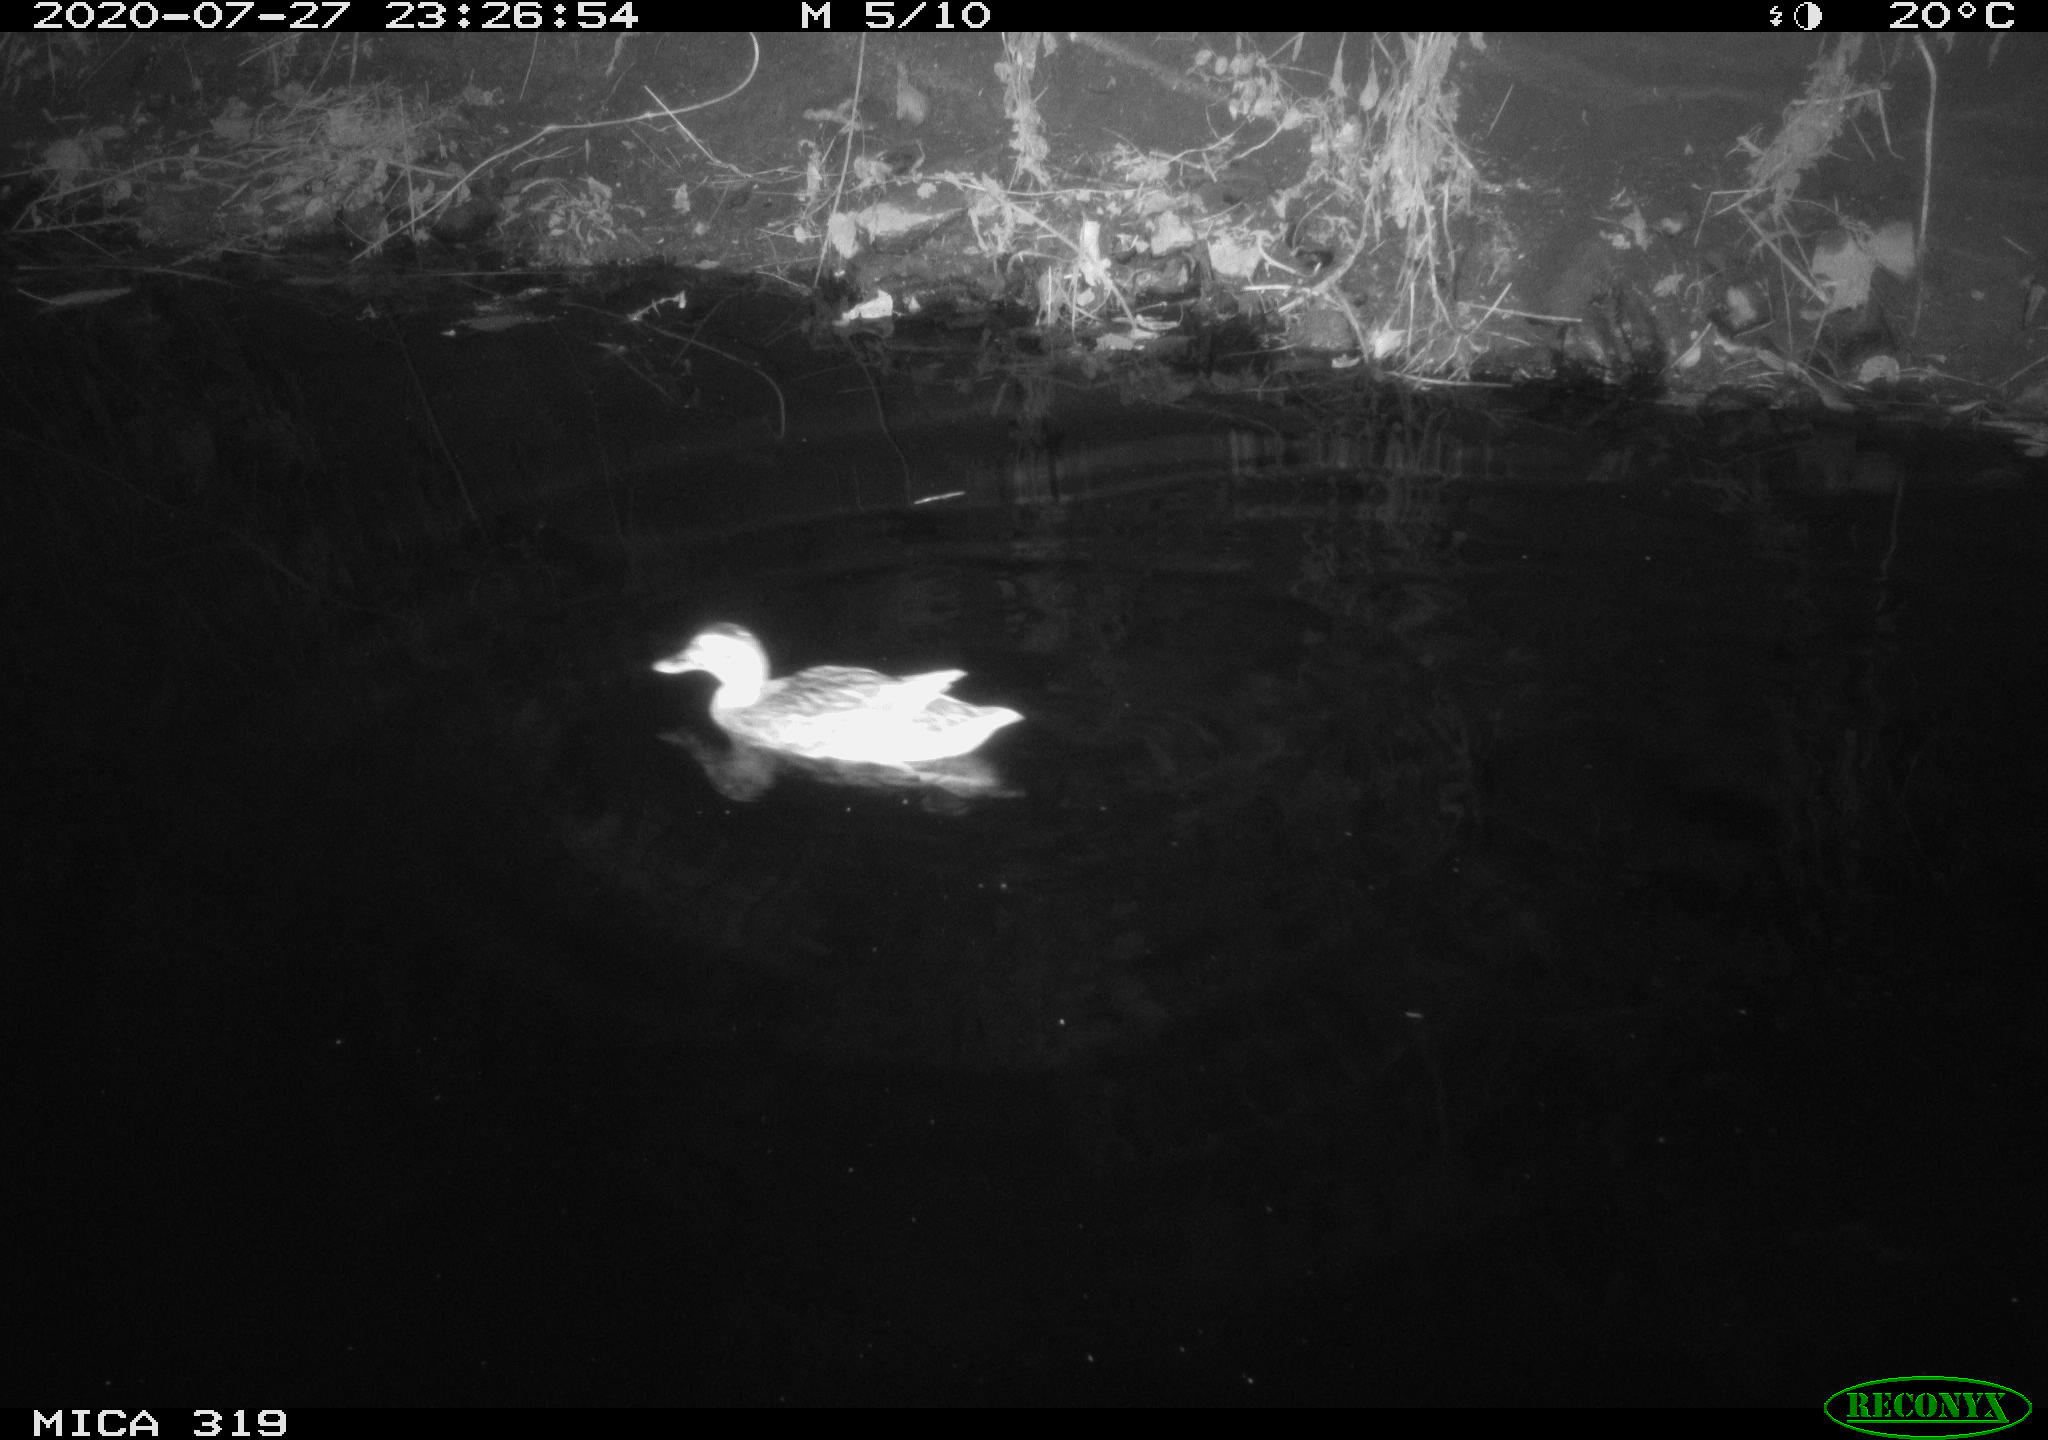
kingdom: Animalia
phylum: Chordata
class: Aves
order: Anseriformes
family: Anatidae
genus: Anas
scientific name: Anas platyrhynchos
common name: Mallard
